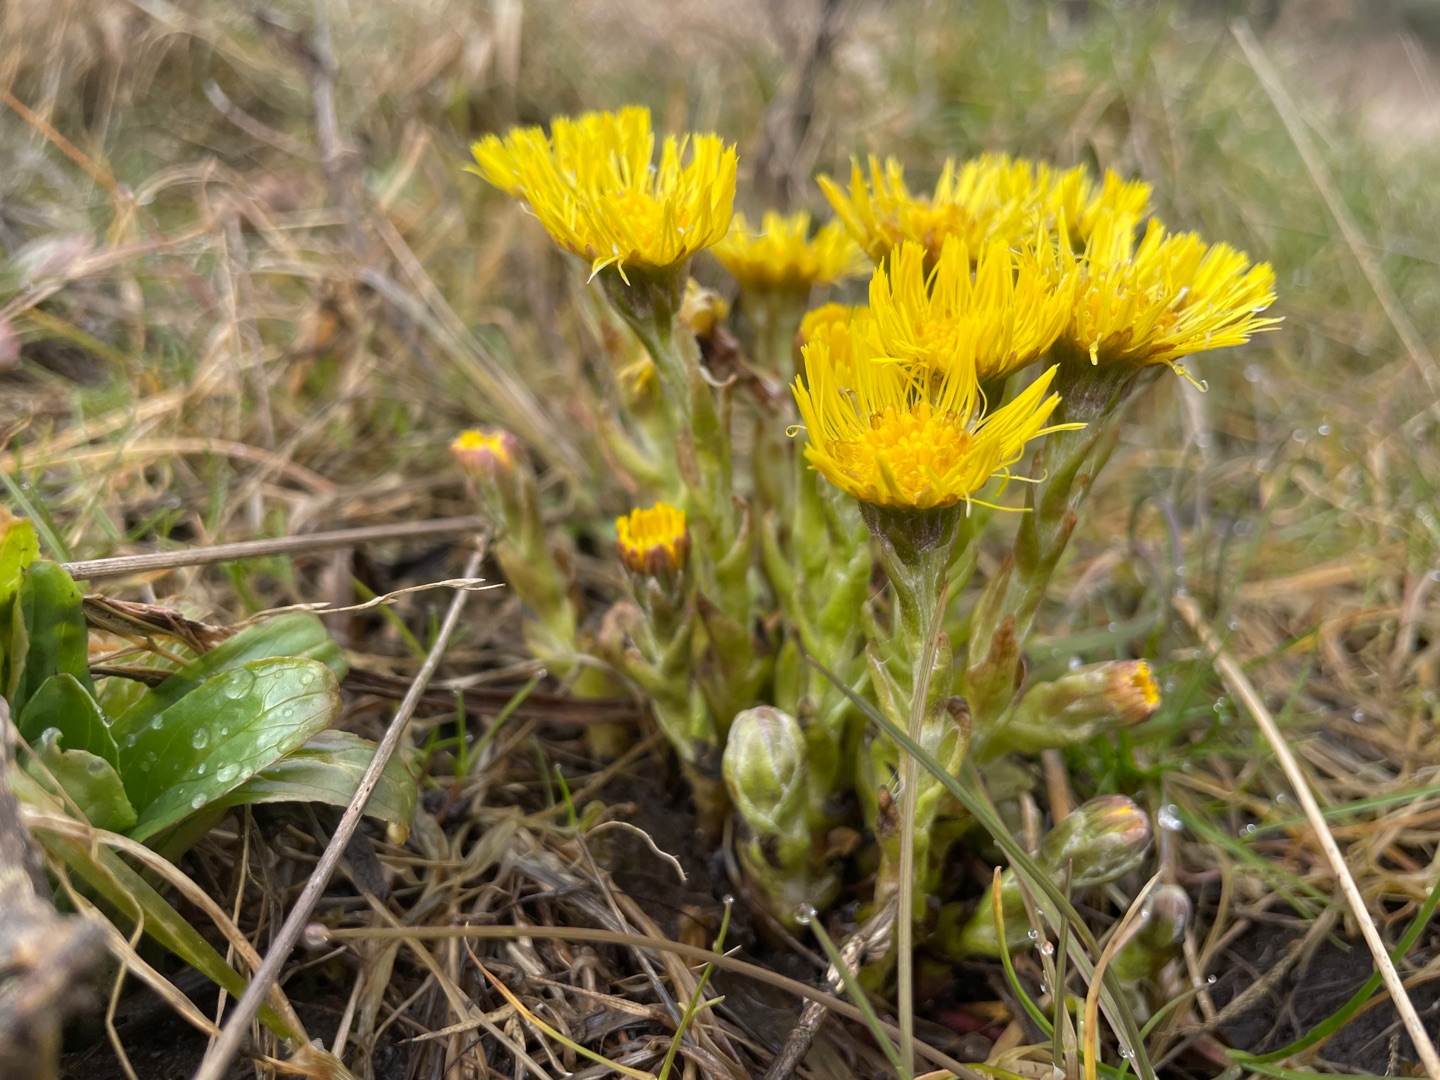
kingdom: Plantae
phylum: Tracheophyta
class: Magnoliopsida
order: Asterales
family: Asteraceae
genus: Tussilago
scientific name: Tussilago farfara
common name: Følfod
